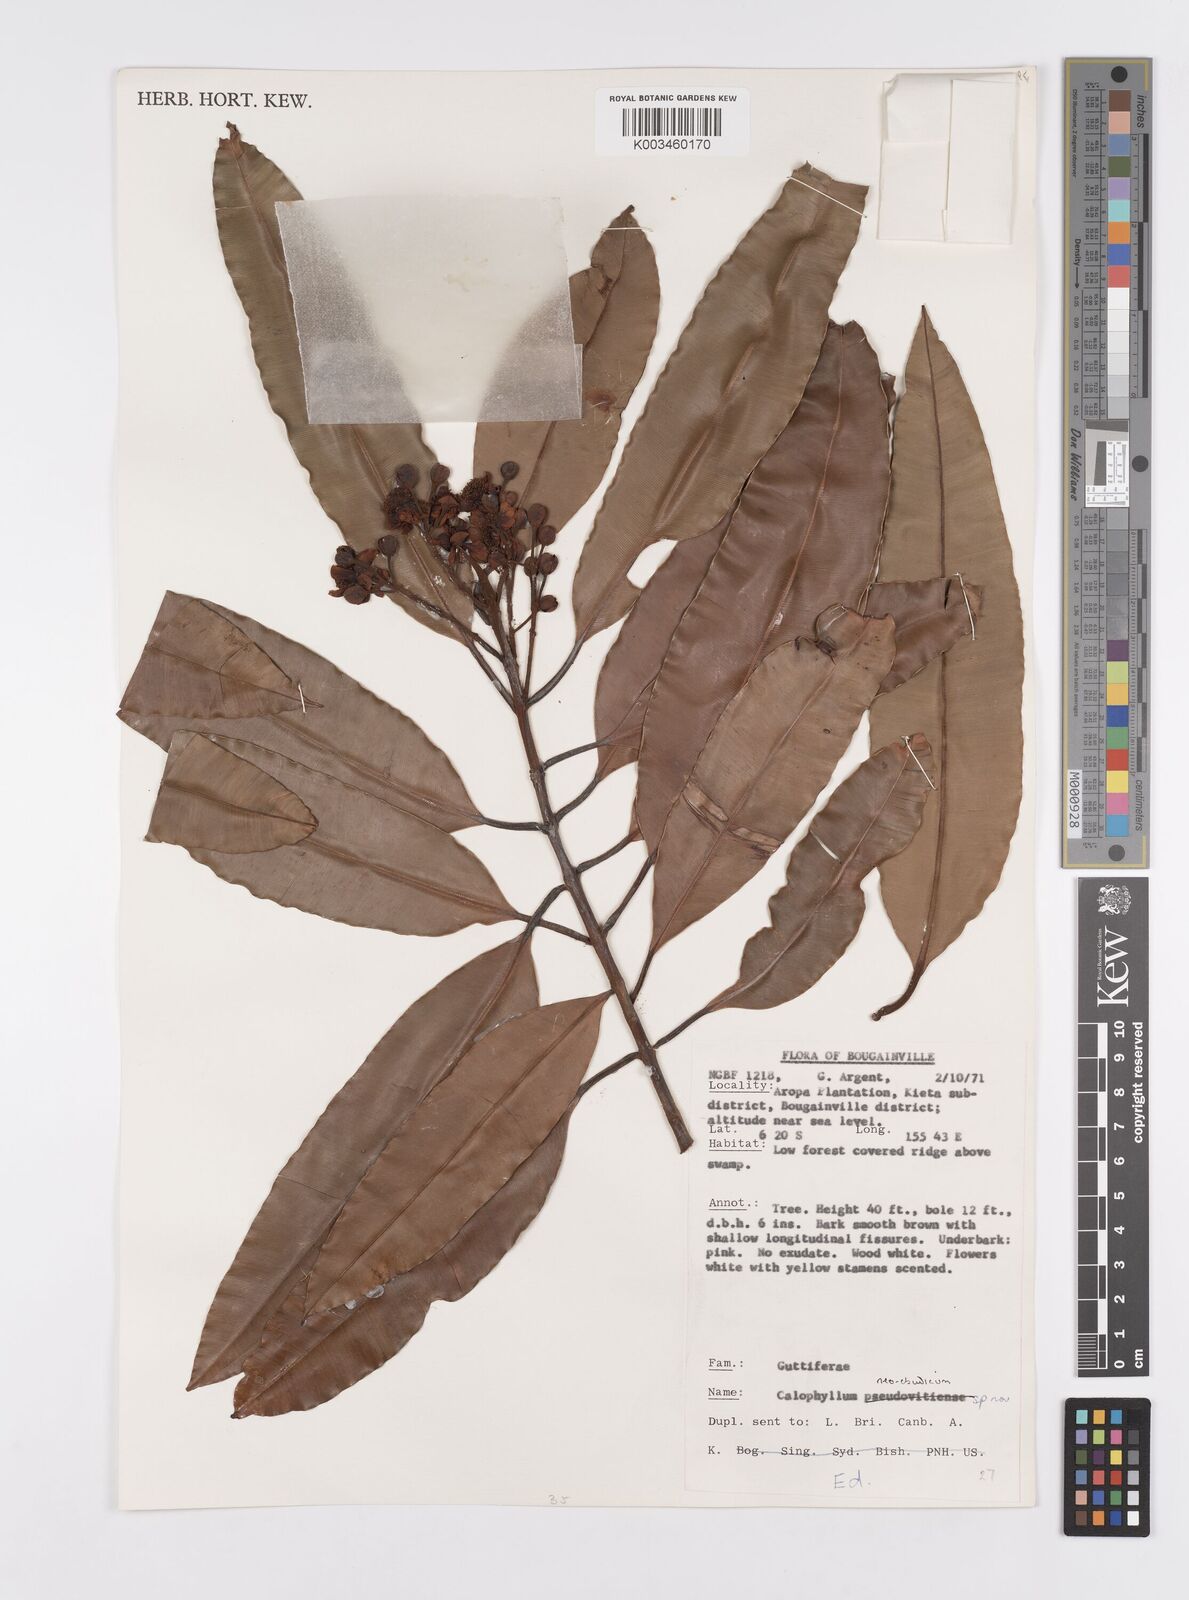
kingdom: Plantae
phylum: Tracheophyta
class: Magnoliopsida
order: Malpighiales
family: Calophyllaceae
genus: Calophyllum
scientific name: Calophyllum neoebudicum
